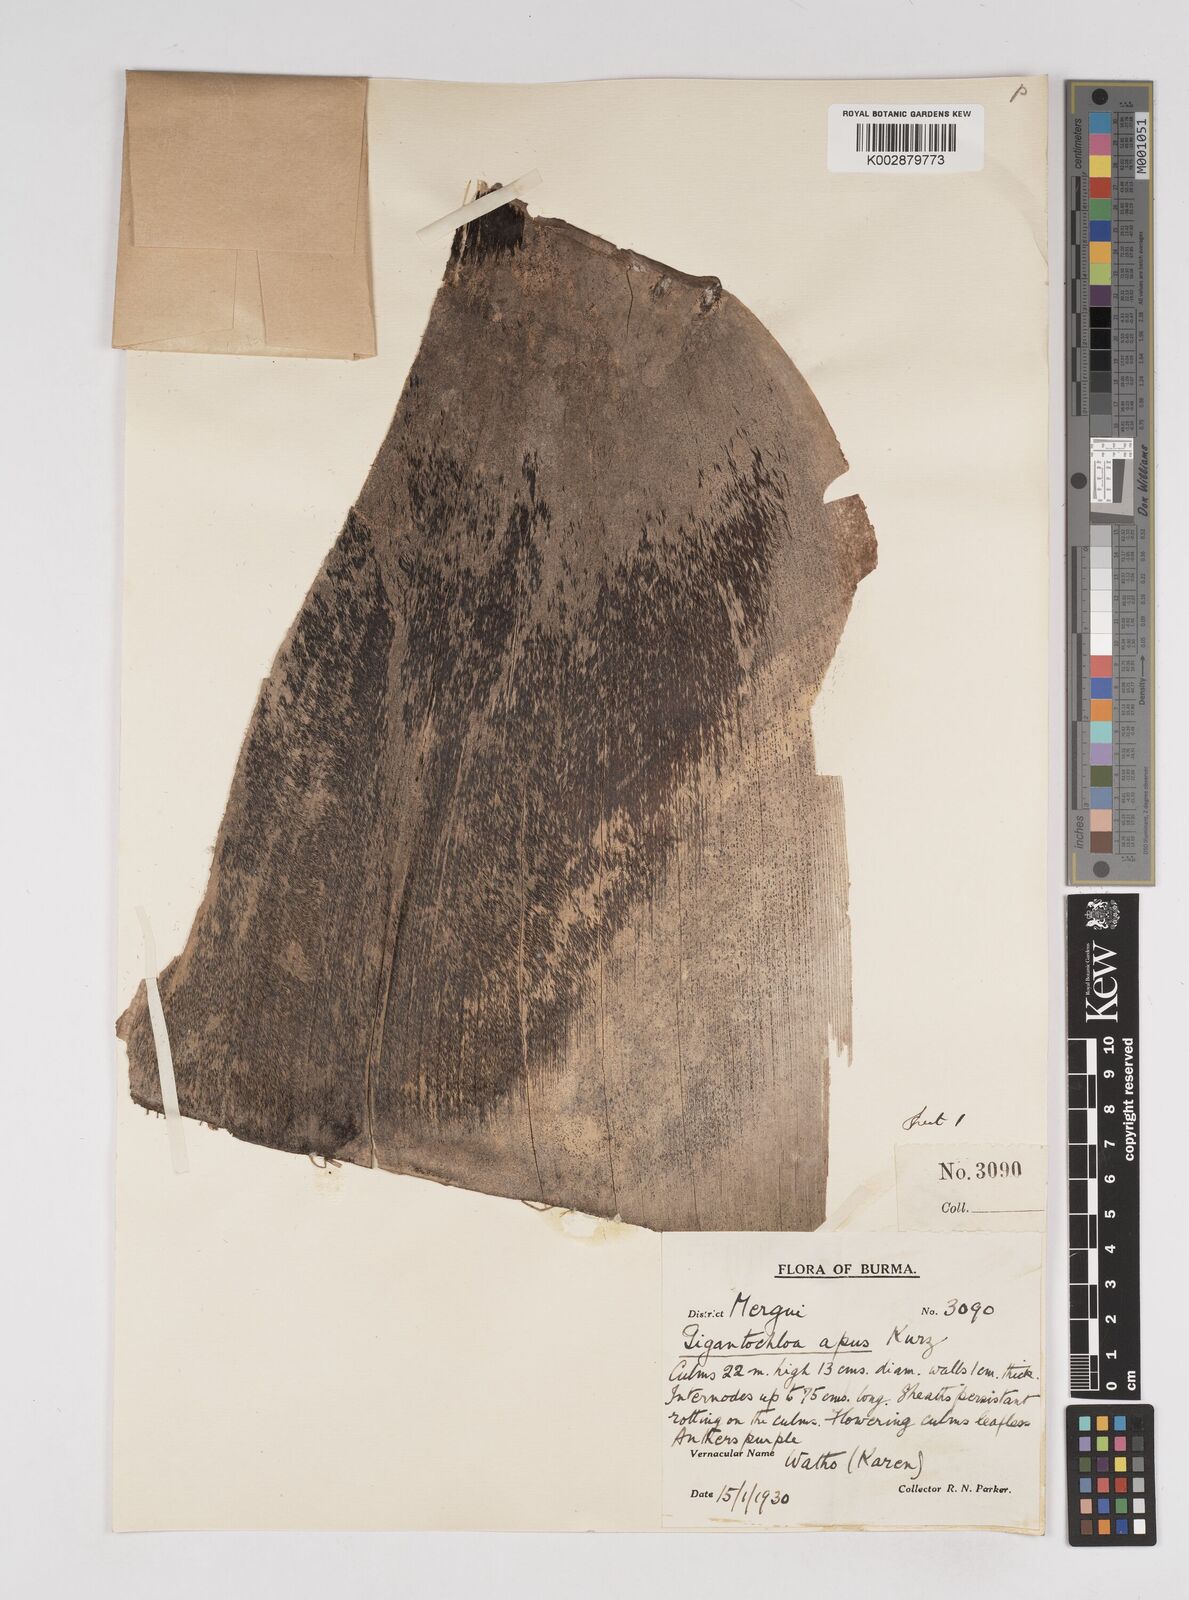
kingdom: Plantae
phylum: Tracheophyta
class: Liliopsida
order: Poales
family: Poaceae
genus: Gigantochloa
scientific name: Gigantochloa compressa
